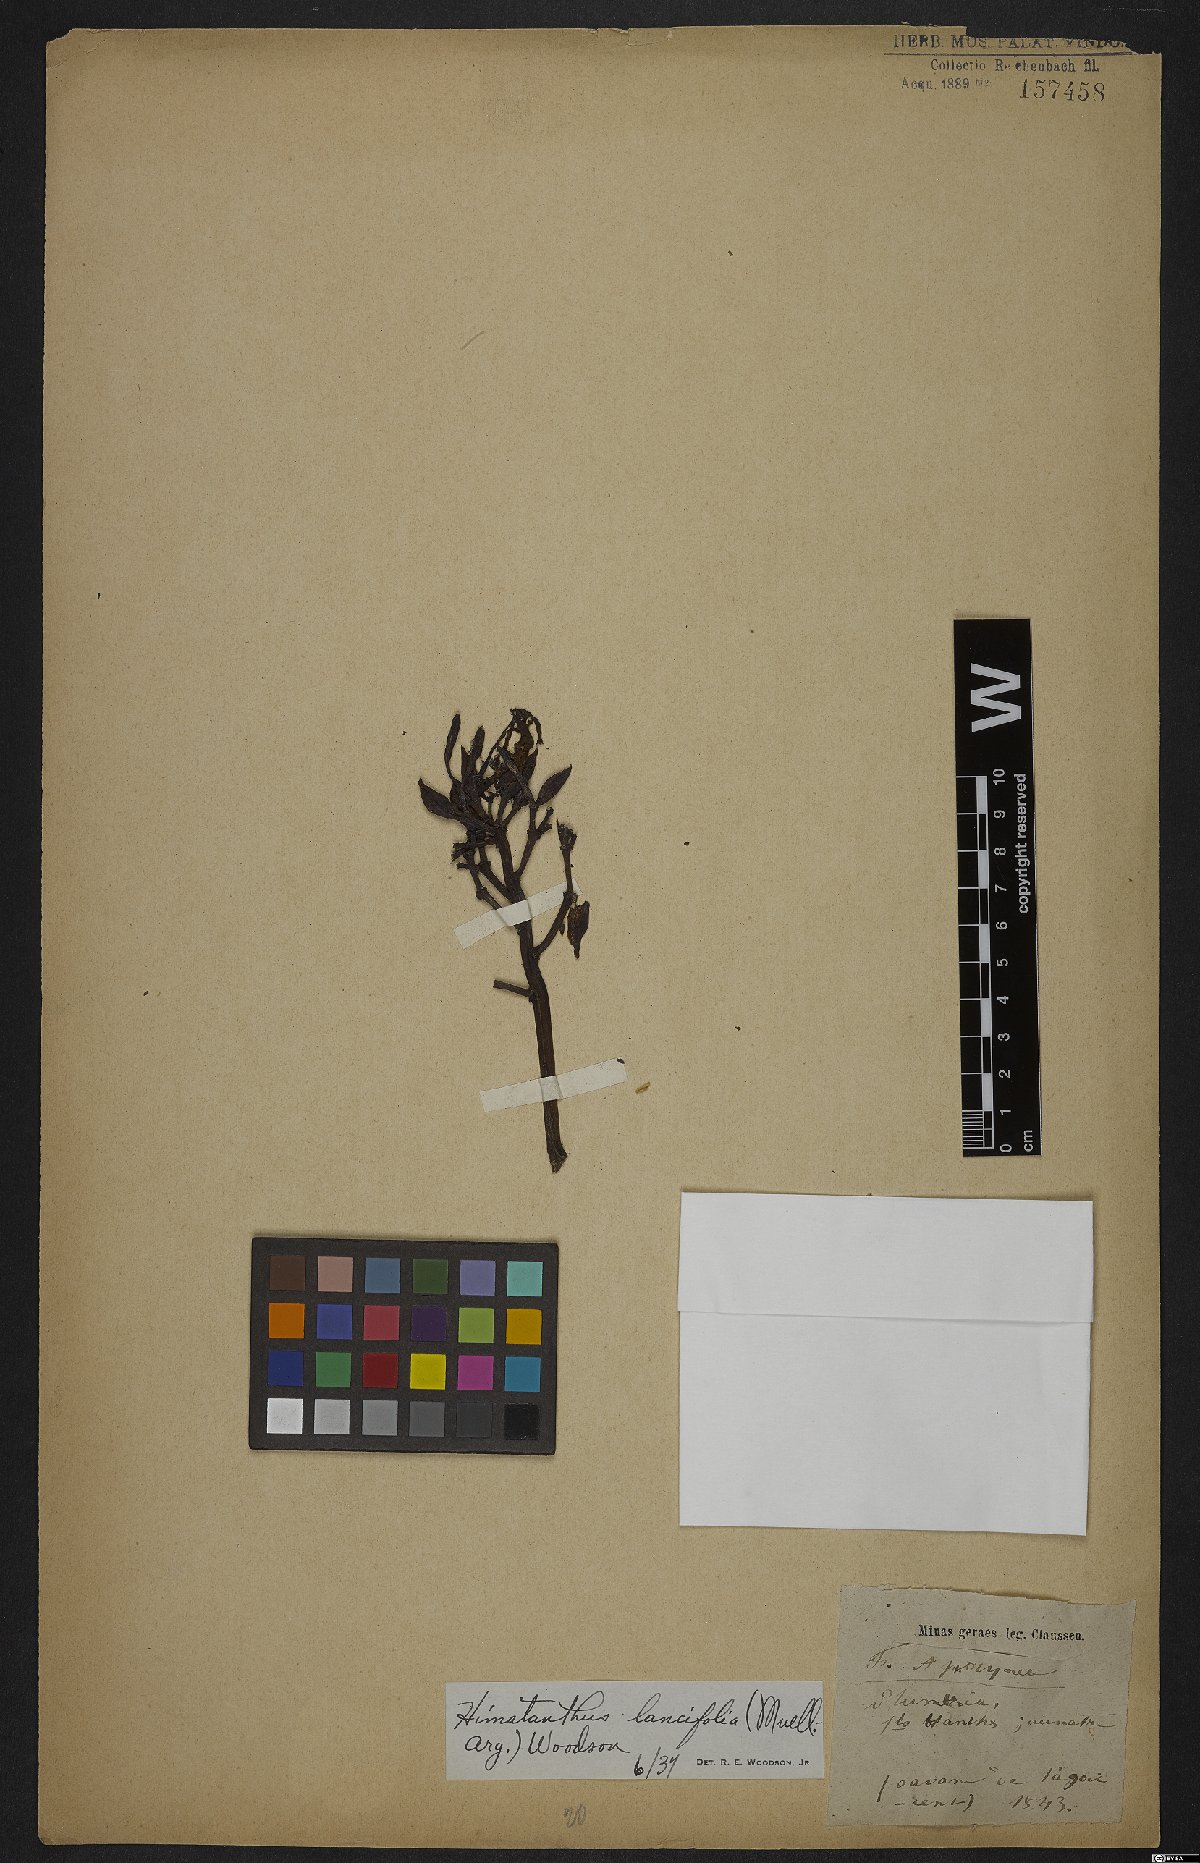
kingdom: Plantae
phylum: Tracheophyta
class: Magnoliopsida
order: Gentianales
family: Apocynaceae
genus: Himatanthus
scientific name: Himatanthus bracteatus
